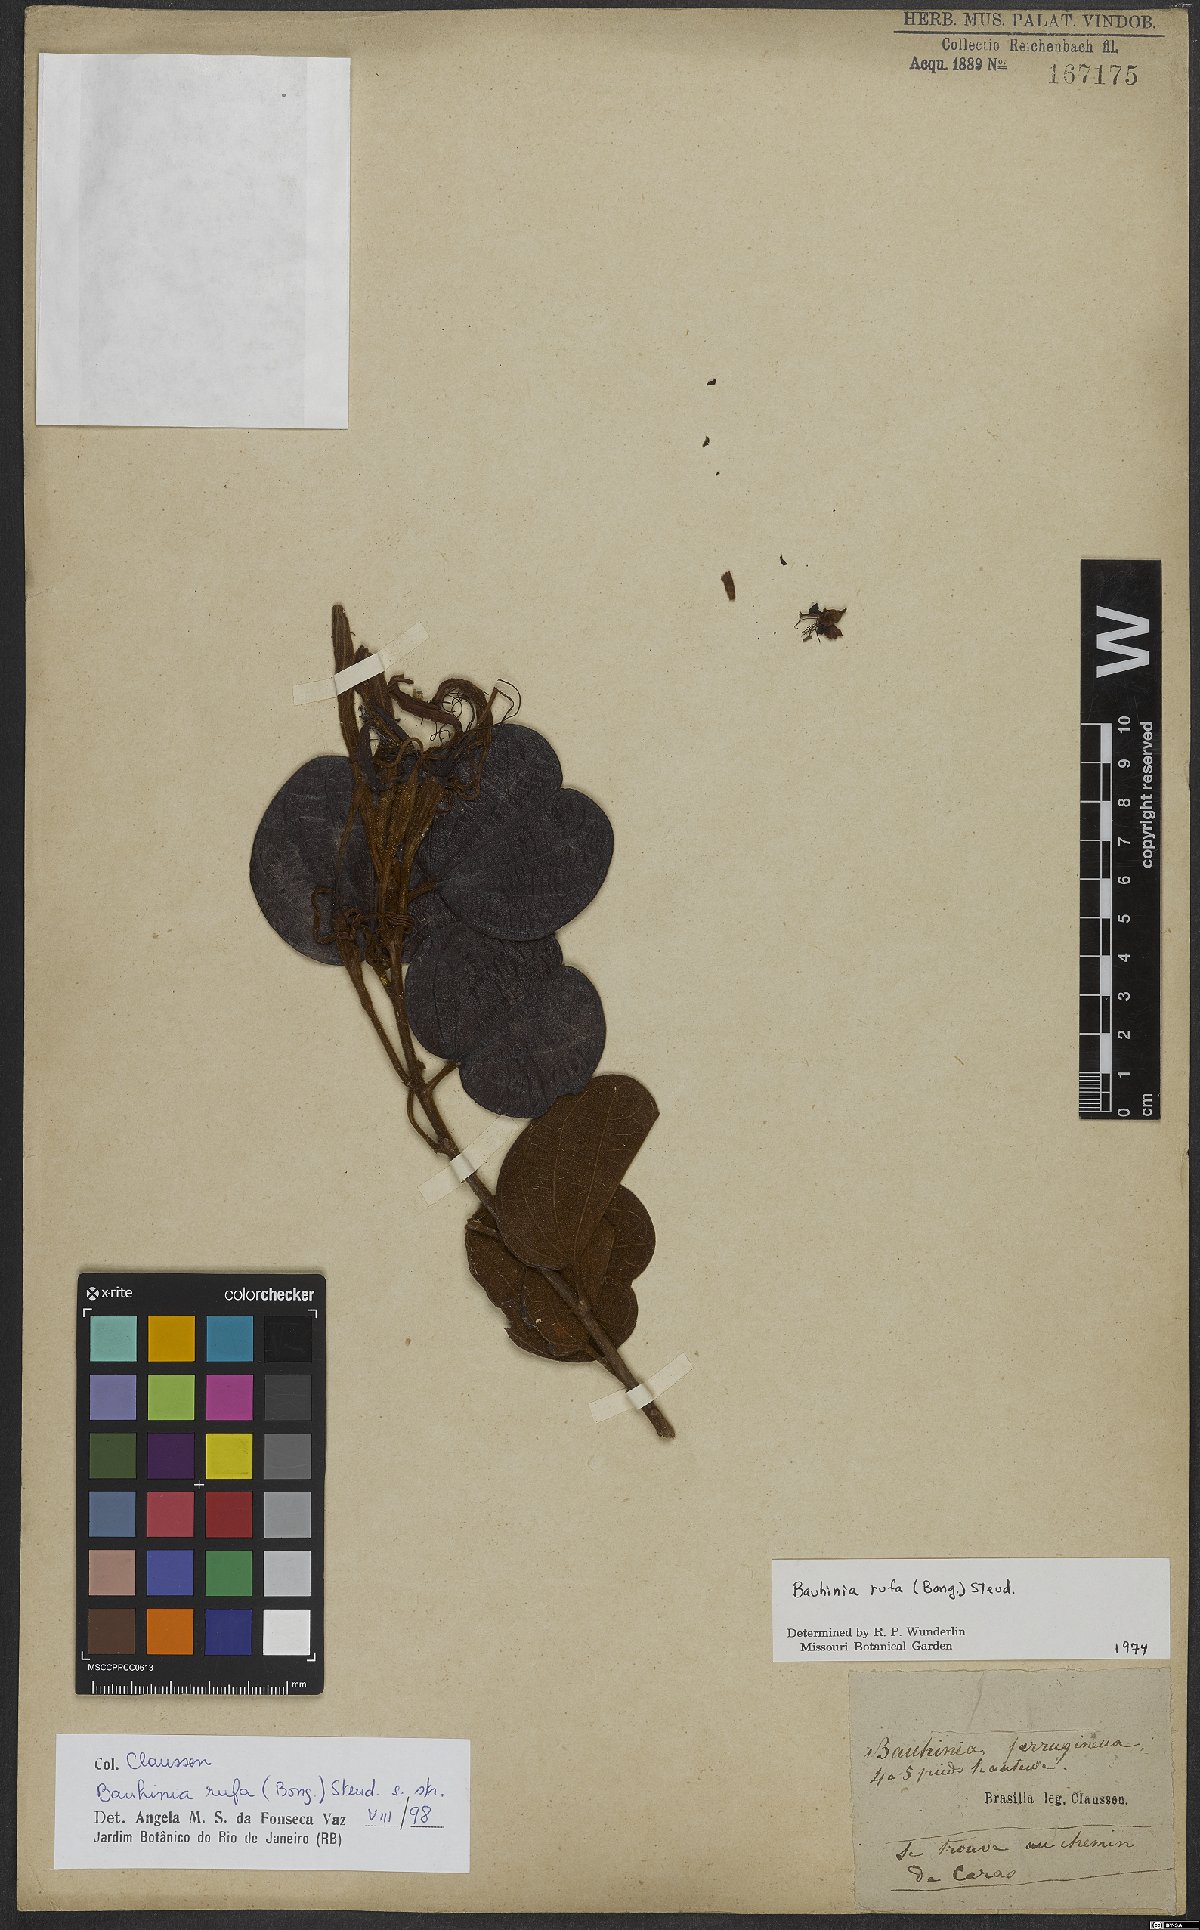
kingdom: Plantae
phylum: Tracheophyta
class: Magnoliopsida
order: Fabales
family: Fabaceae
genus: Bauhinia
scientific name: Bauhinia rufa
